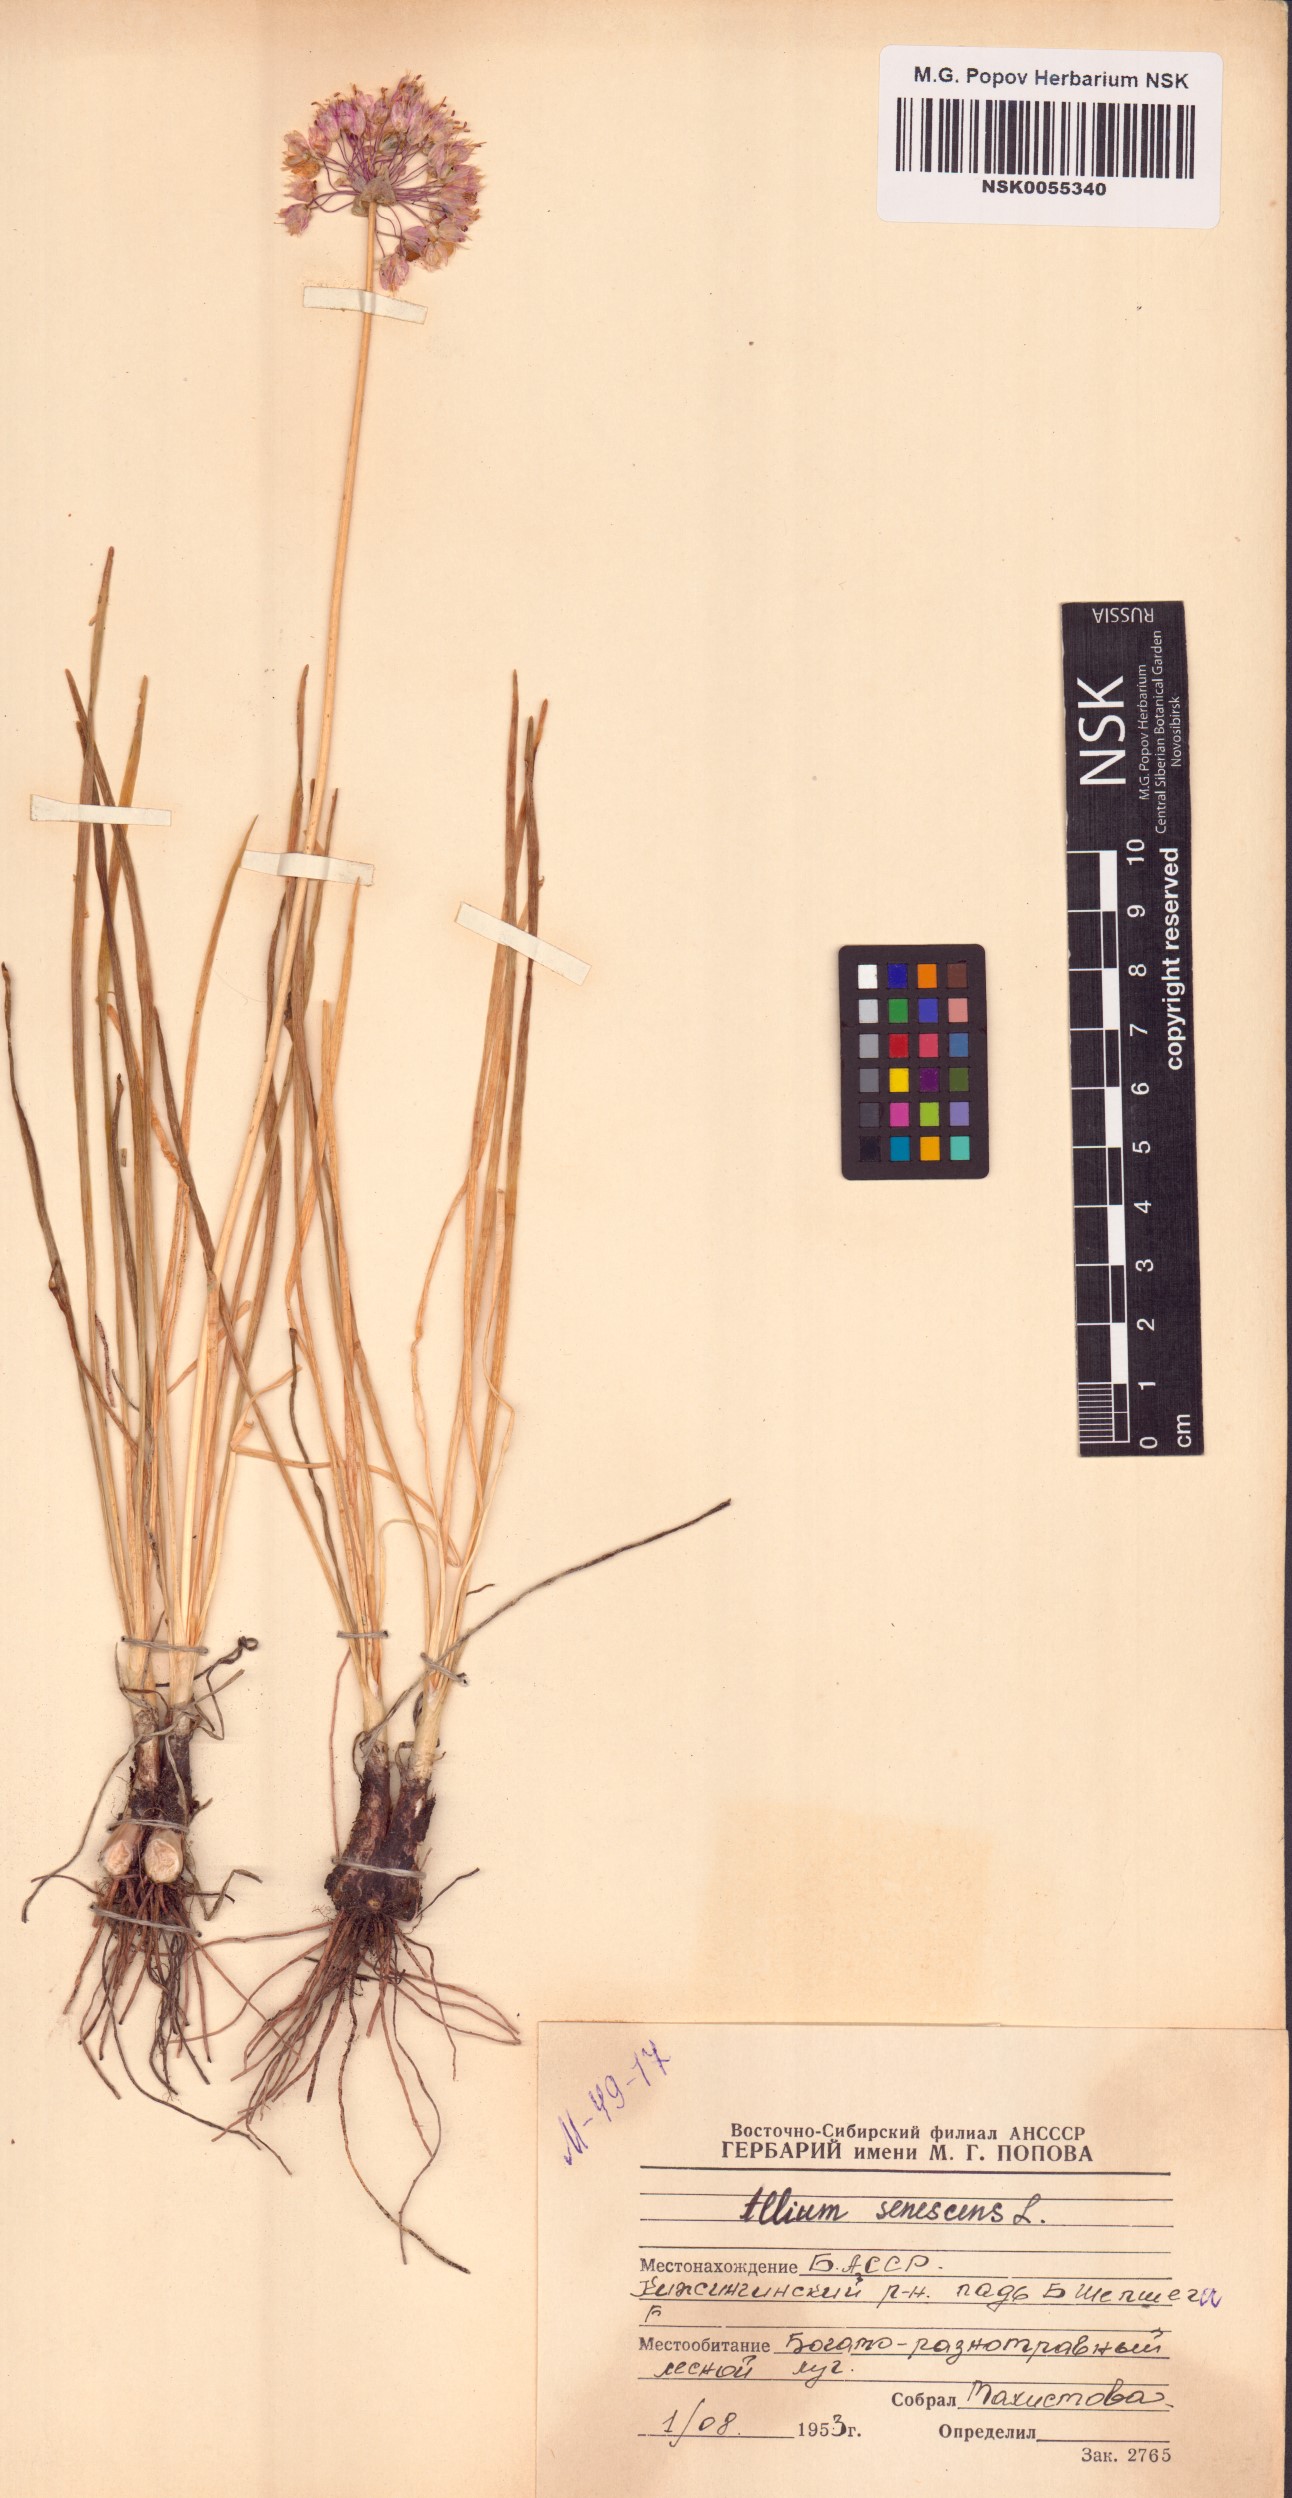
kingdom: Plantae
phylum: Tracheophyta
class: Liliopsida
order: Asparagales
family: Amaryllidaceae
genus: Allium
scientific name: Allium senescens
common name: German garlic
